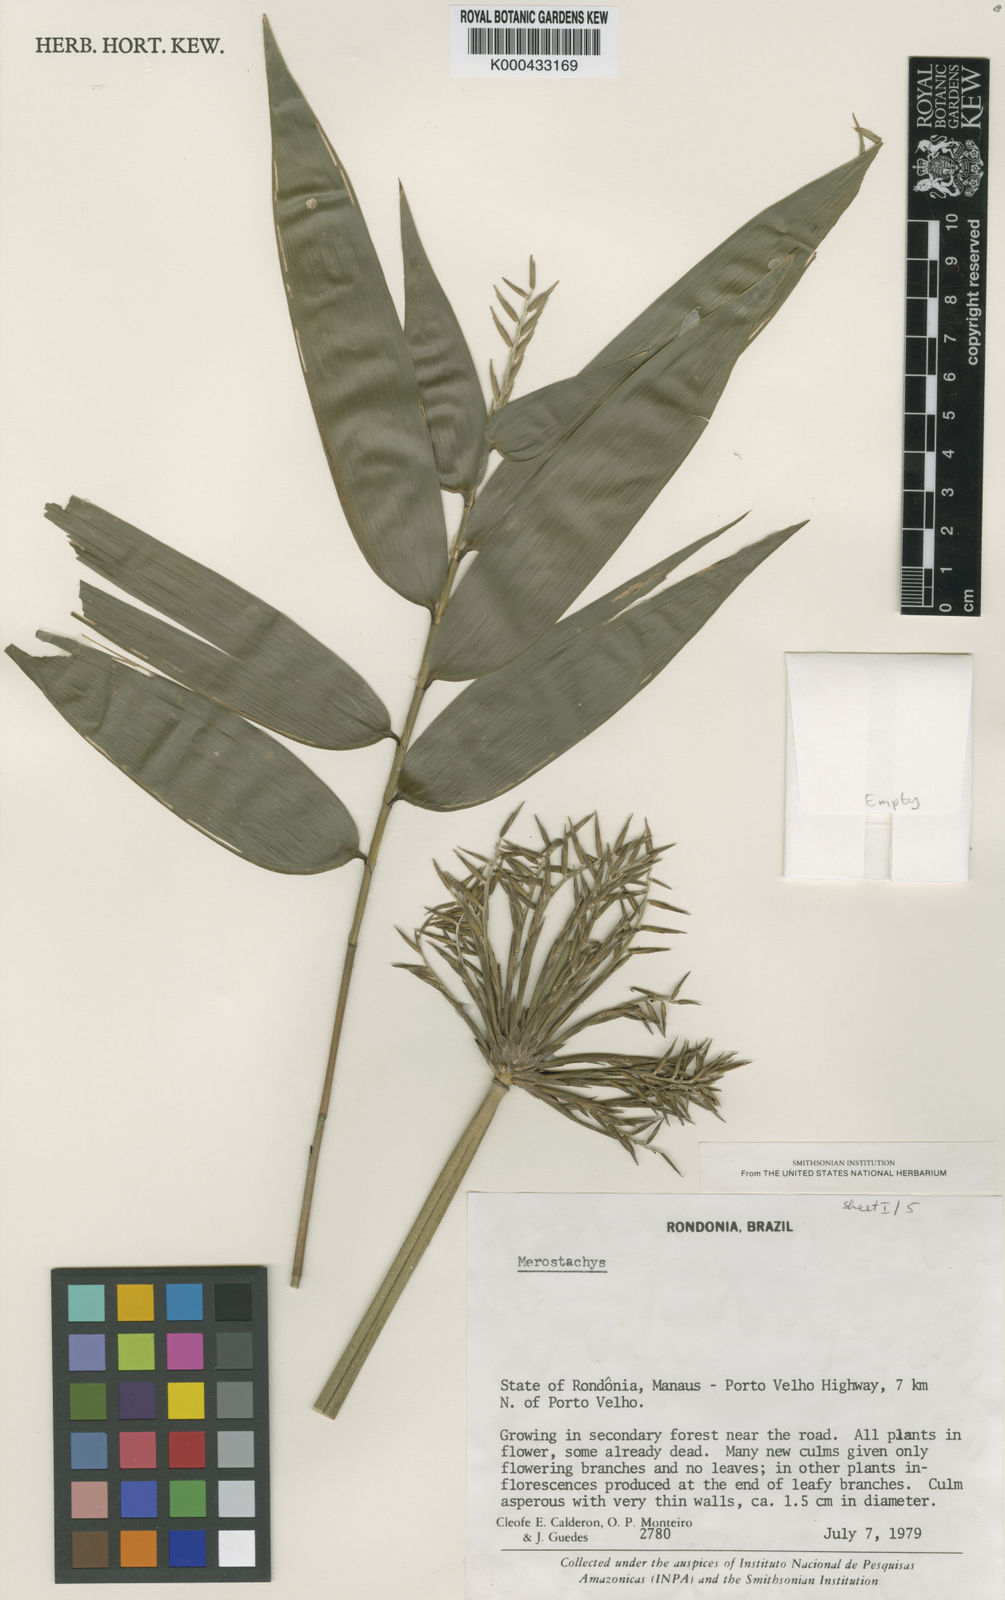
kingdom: Plantae
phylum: Tracheophyta
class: Liliopsida
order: Poales
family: Poaceae
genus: Merostachys
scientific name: Merostachys
